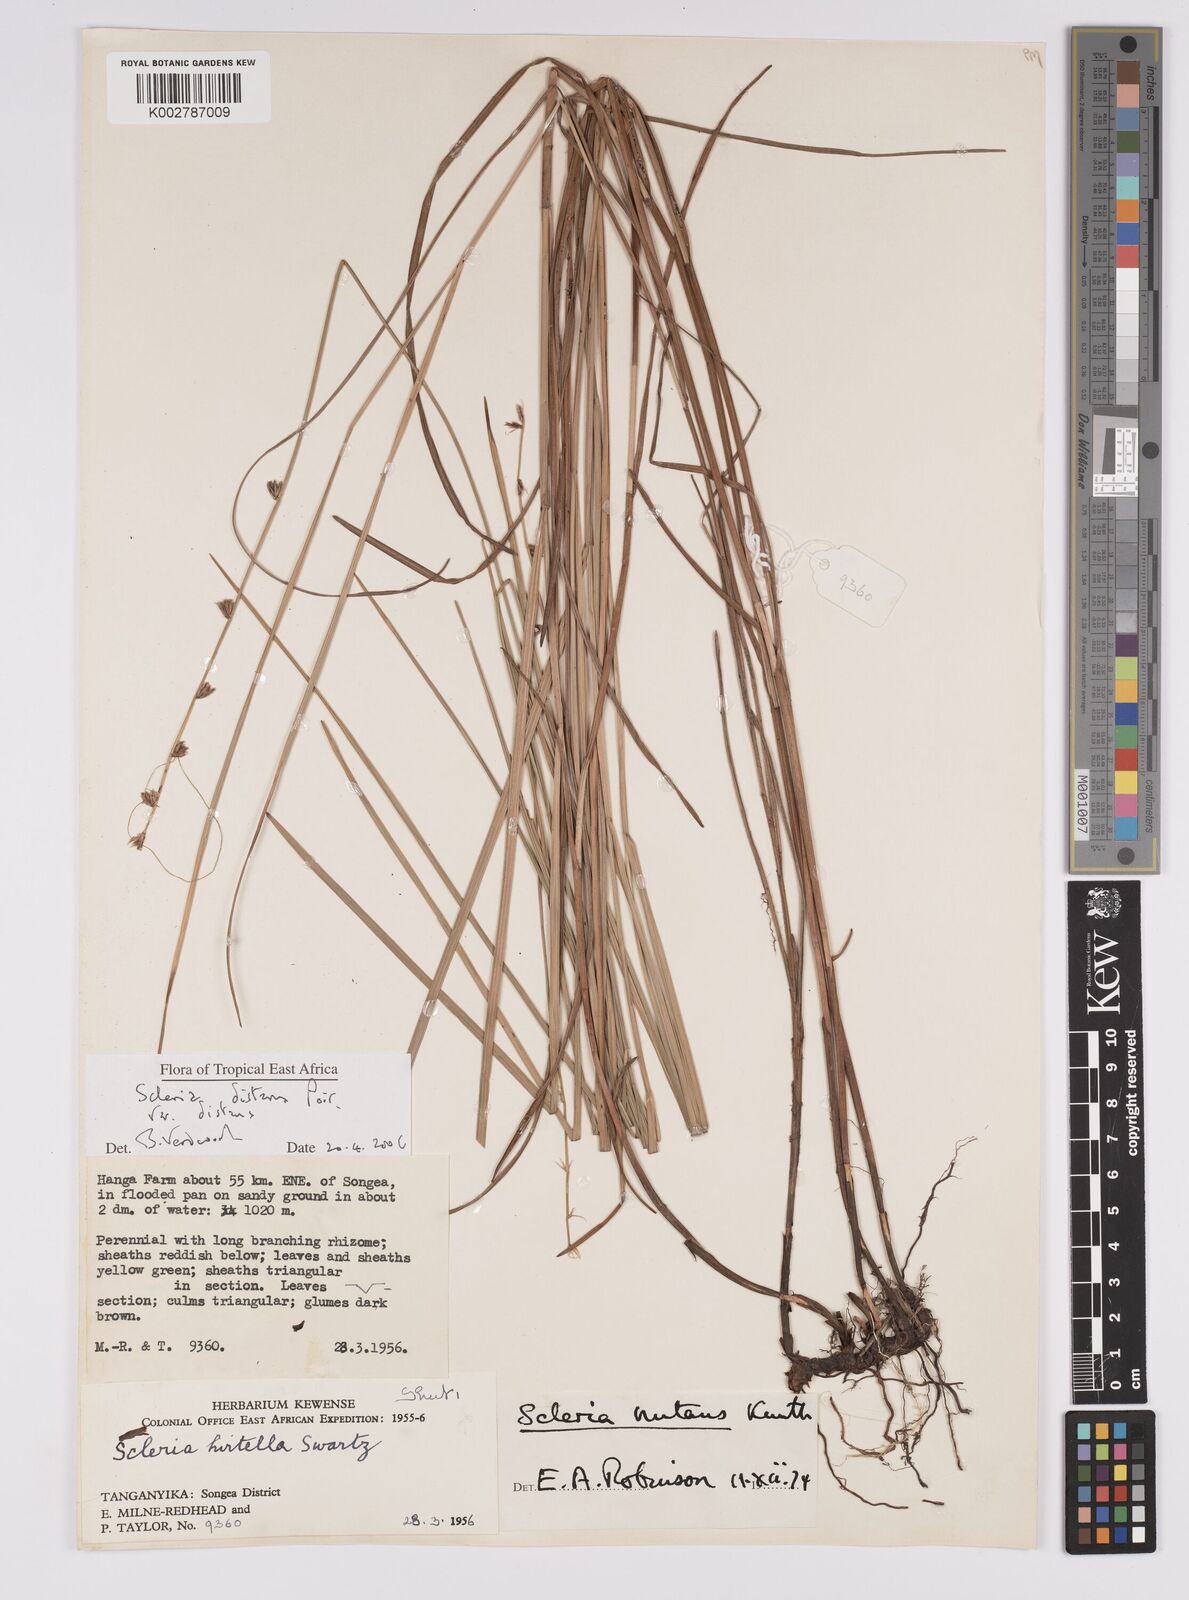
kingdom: Plantae
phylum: Tracheophyta
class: Liliopsida
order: Poales
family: Cyperaceae
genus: Scleria
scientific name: Scleria distans
